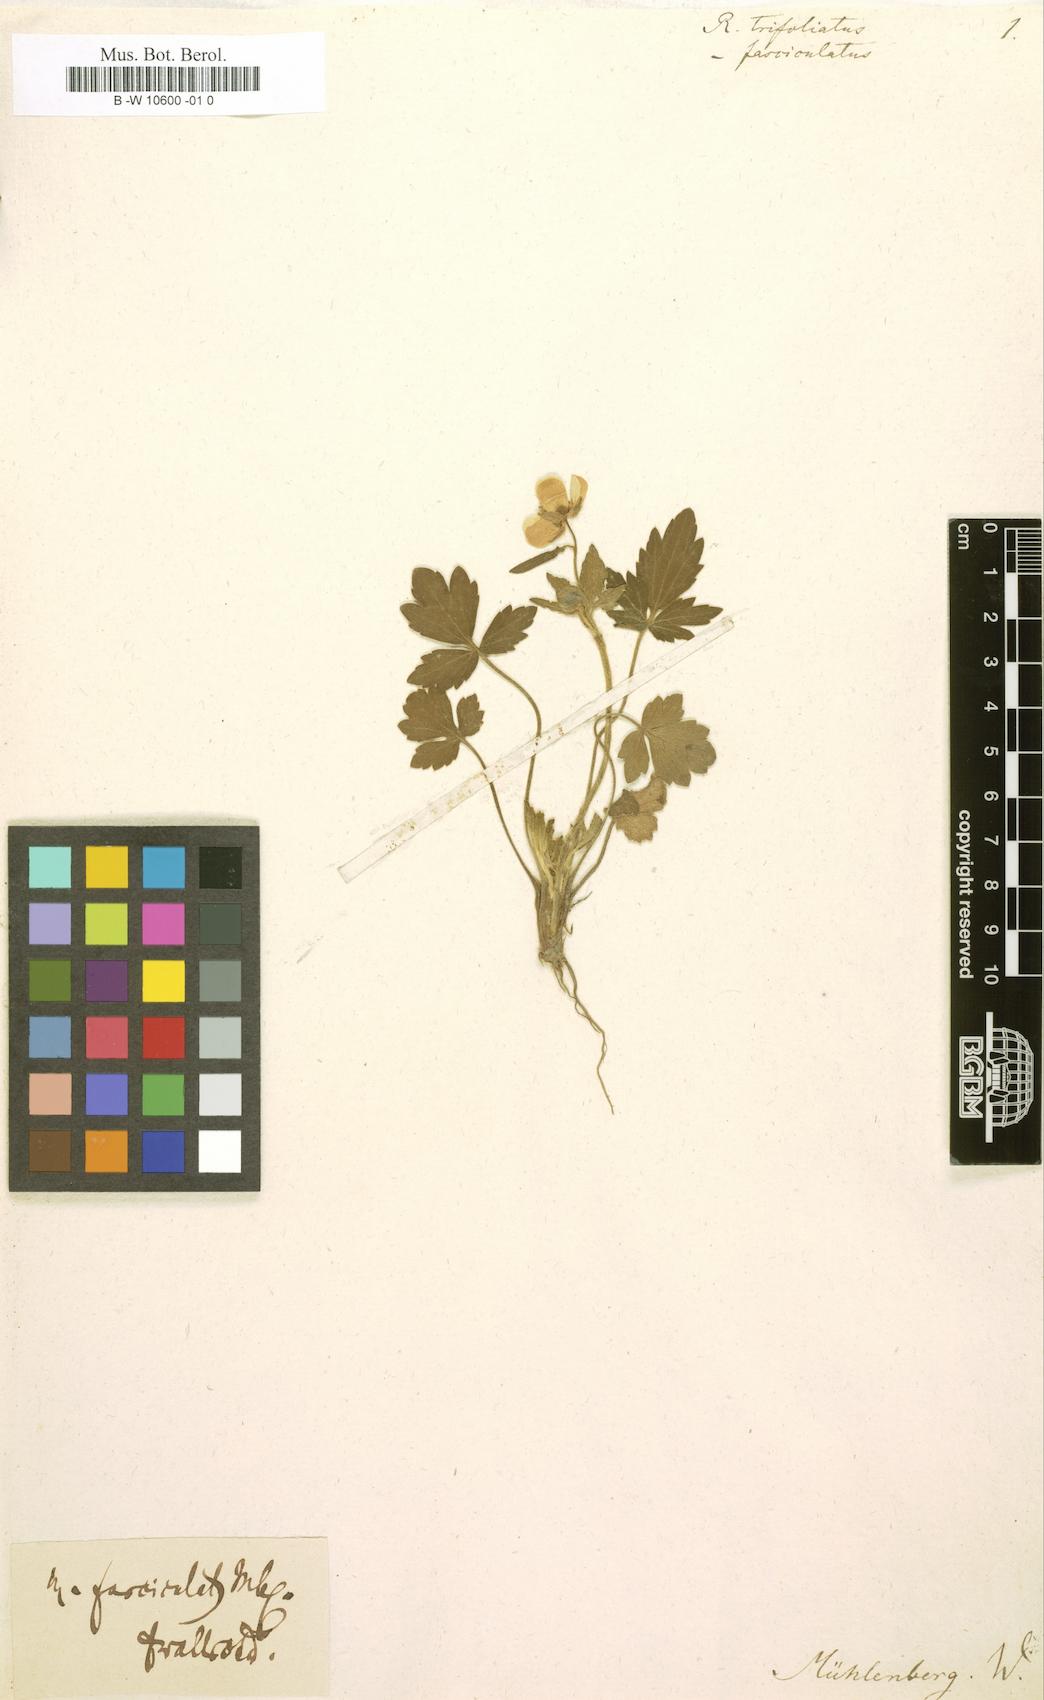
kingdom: Plantae
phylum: Tracheophyta
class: Magnoliopsida
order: Ranunculales
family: Ranunculaceae
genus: Ranunculus
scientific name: Ranunculus fascicularis
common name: Early buttercup
